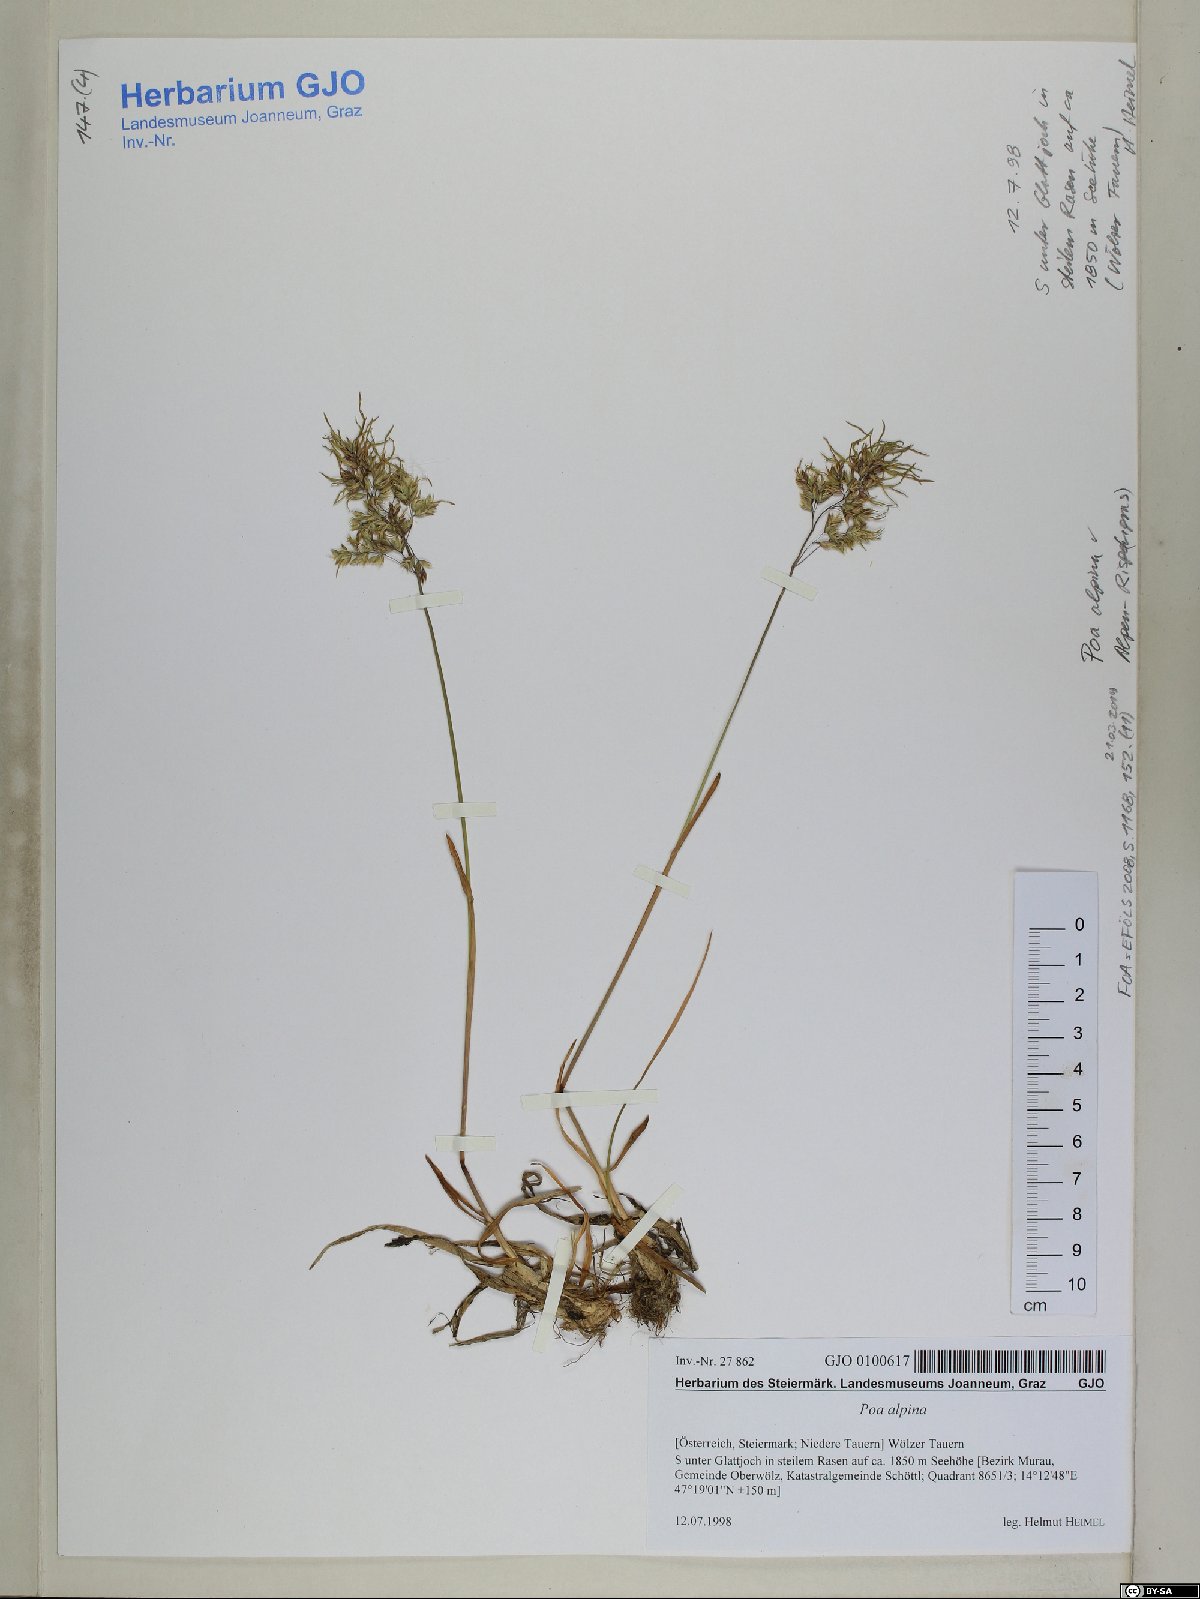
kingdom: Plantae
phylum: Tracheophyta
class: Liliopsida
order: Poales
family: Poaceae
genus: Poa
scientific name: Poa alpina
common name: Alpine bluegrass
